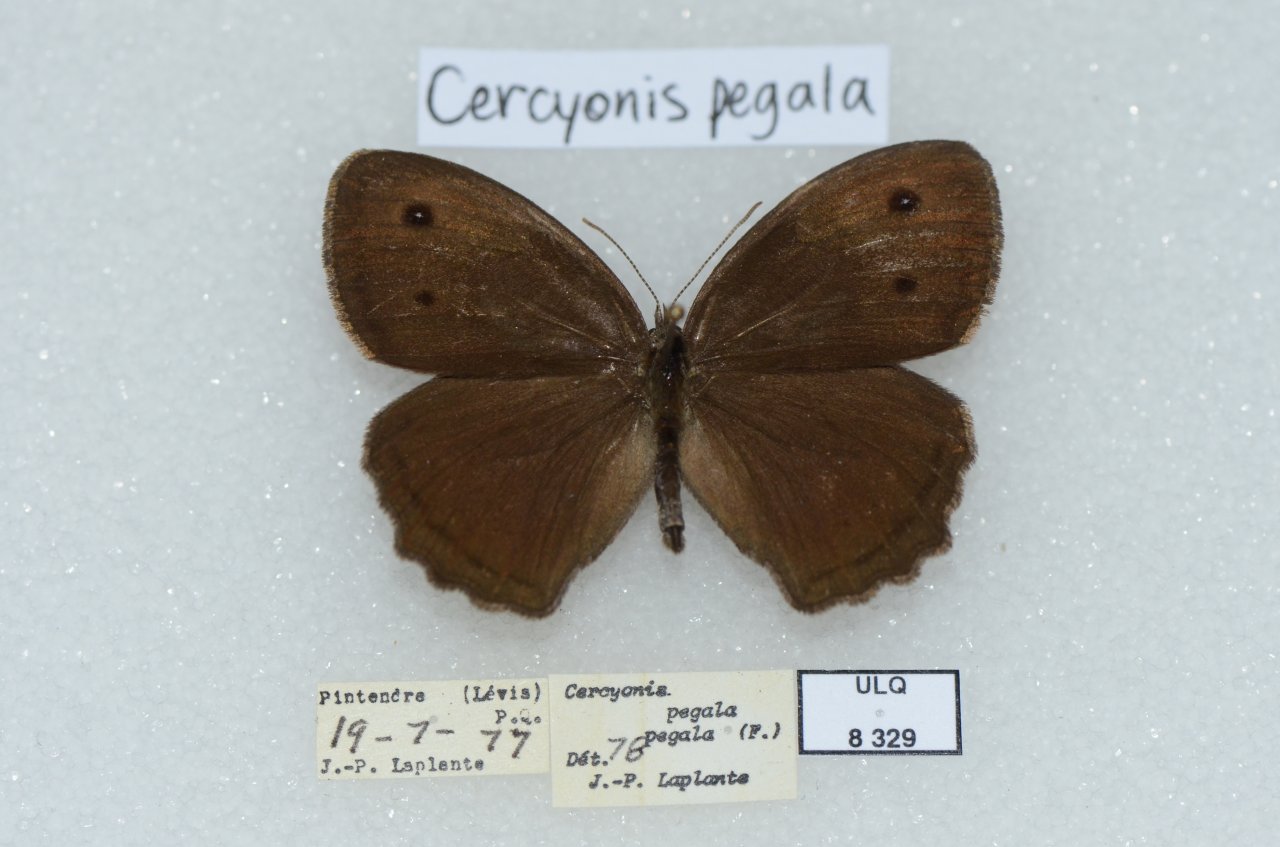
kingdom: Animalia
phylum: Arthropoda
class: Insecta
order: Lepidoptera
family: Nymphalidae
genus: Cercyonis
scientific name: Cercyonis pegala
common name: Common Wood-Nymph
